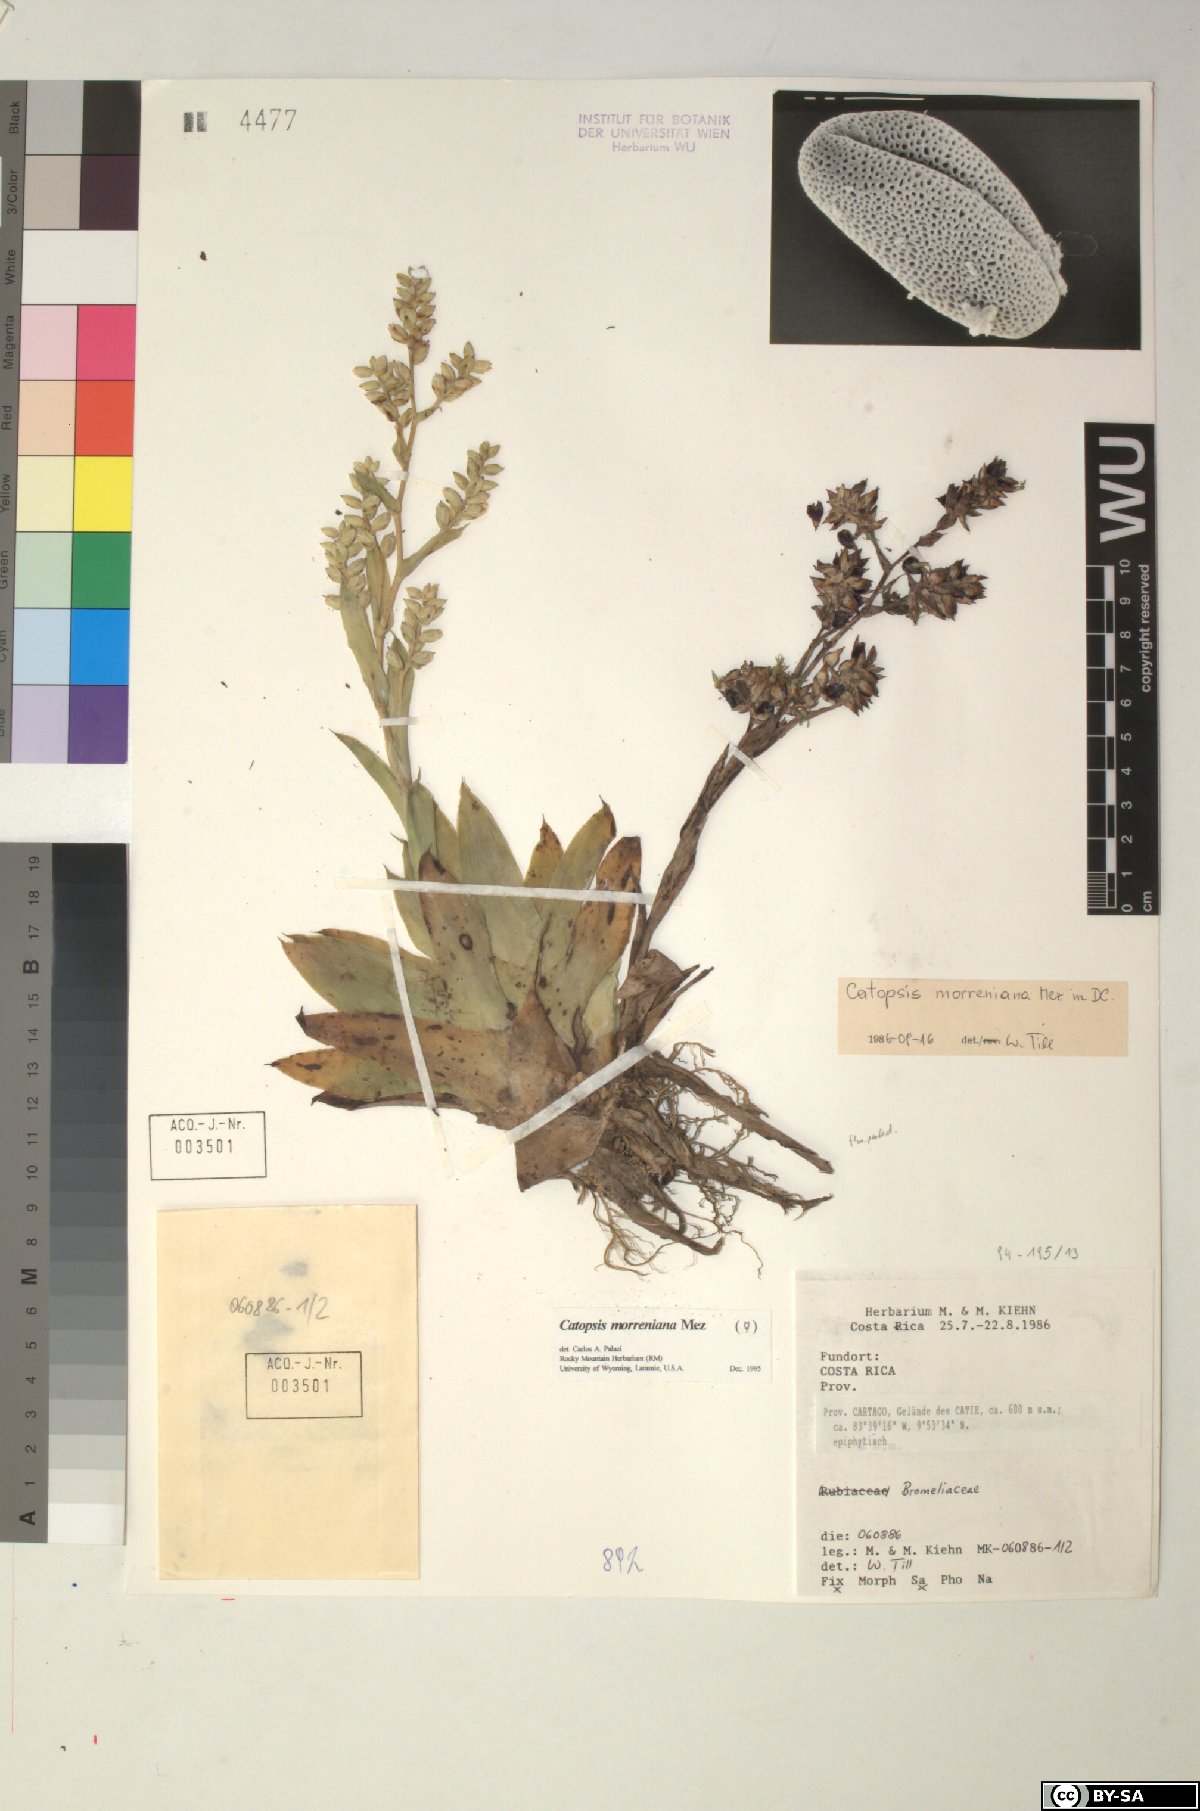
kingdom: Plantae
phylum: Tracheophyta
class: Liliopsida
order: Poales
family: Bromeliaceae
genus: Catopsis
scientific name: Catopsis morreniana
